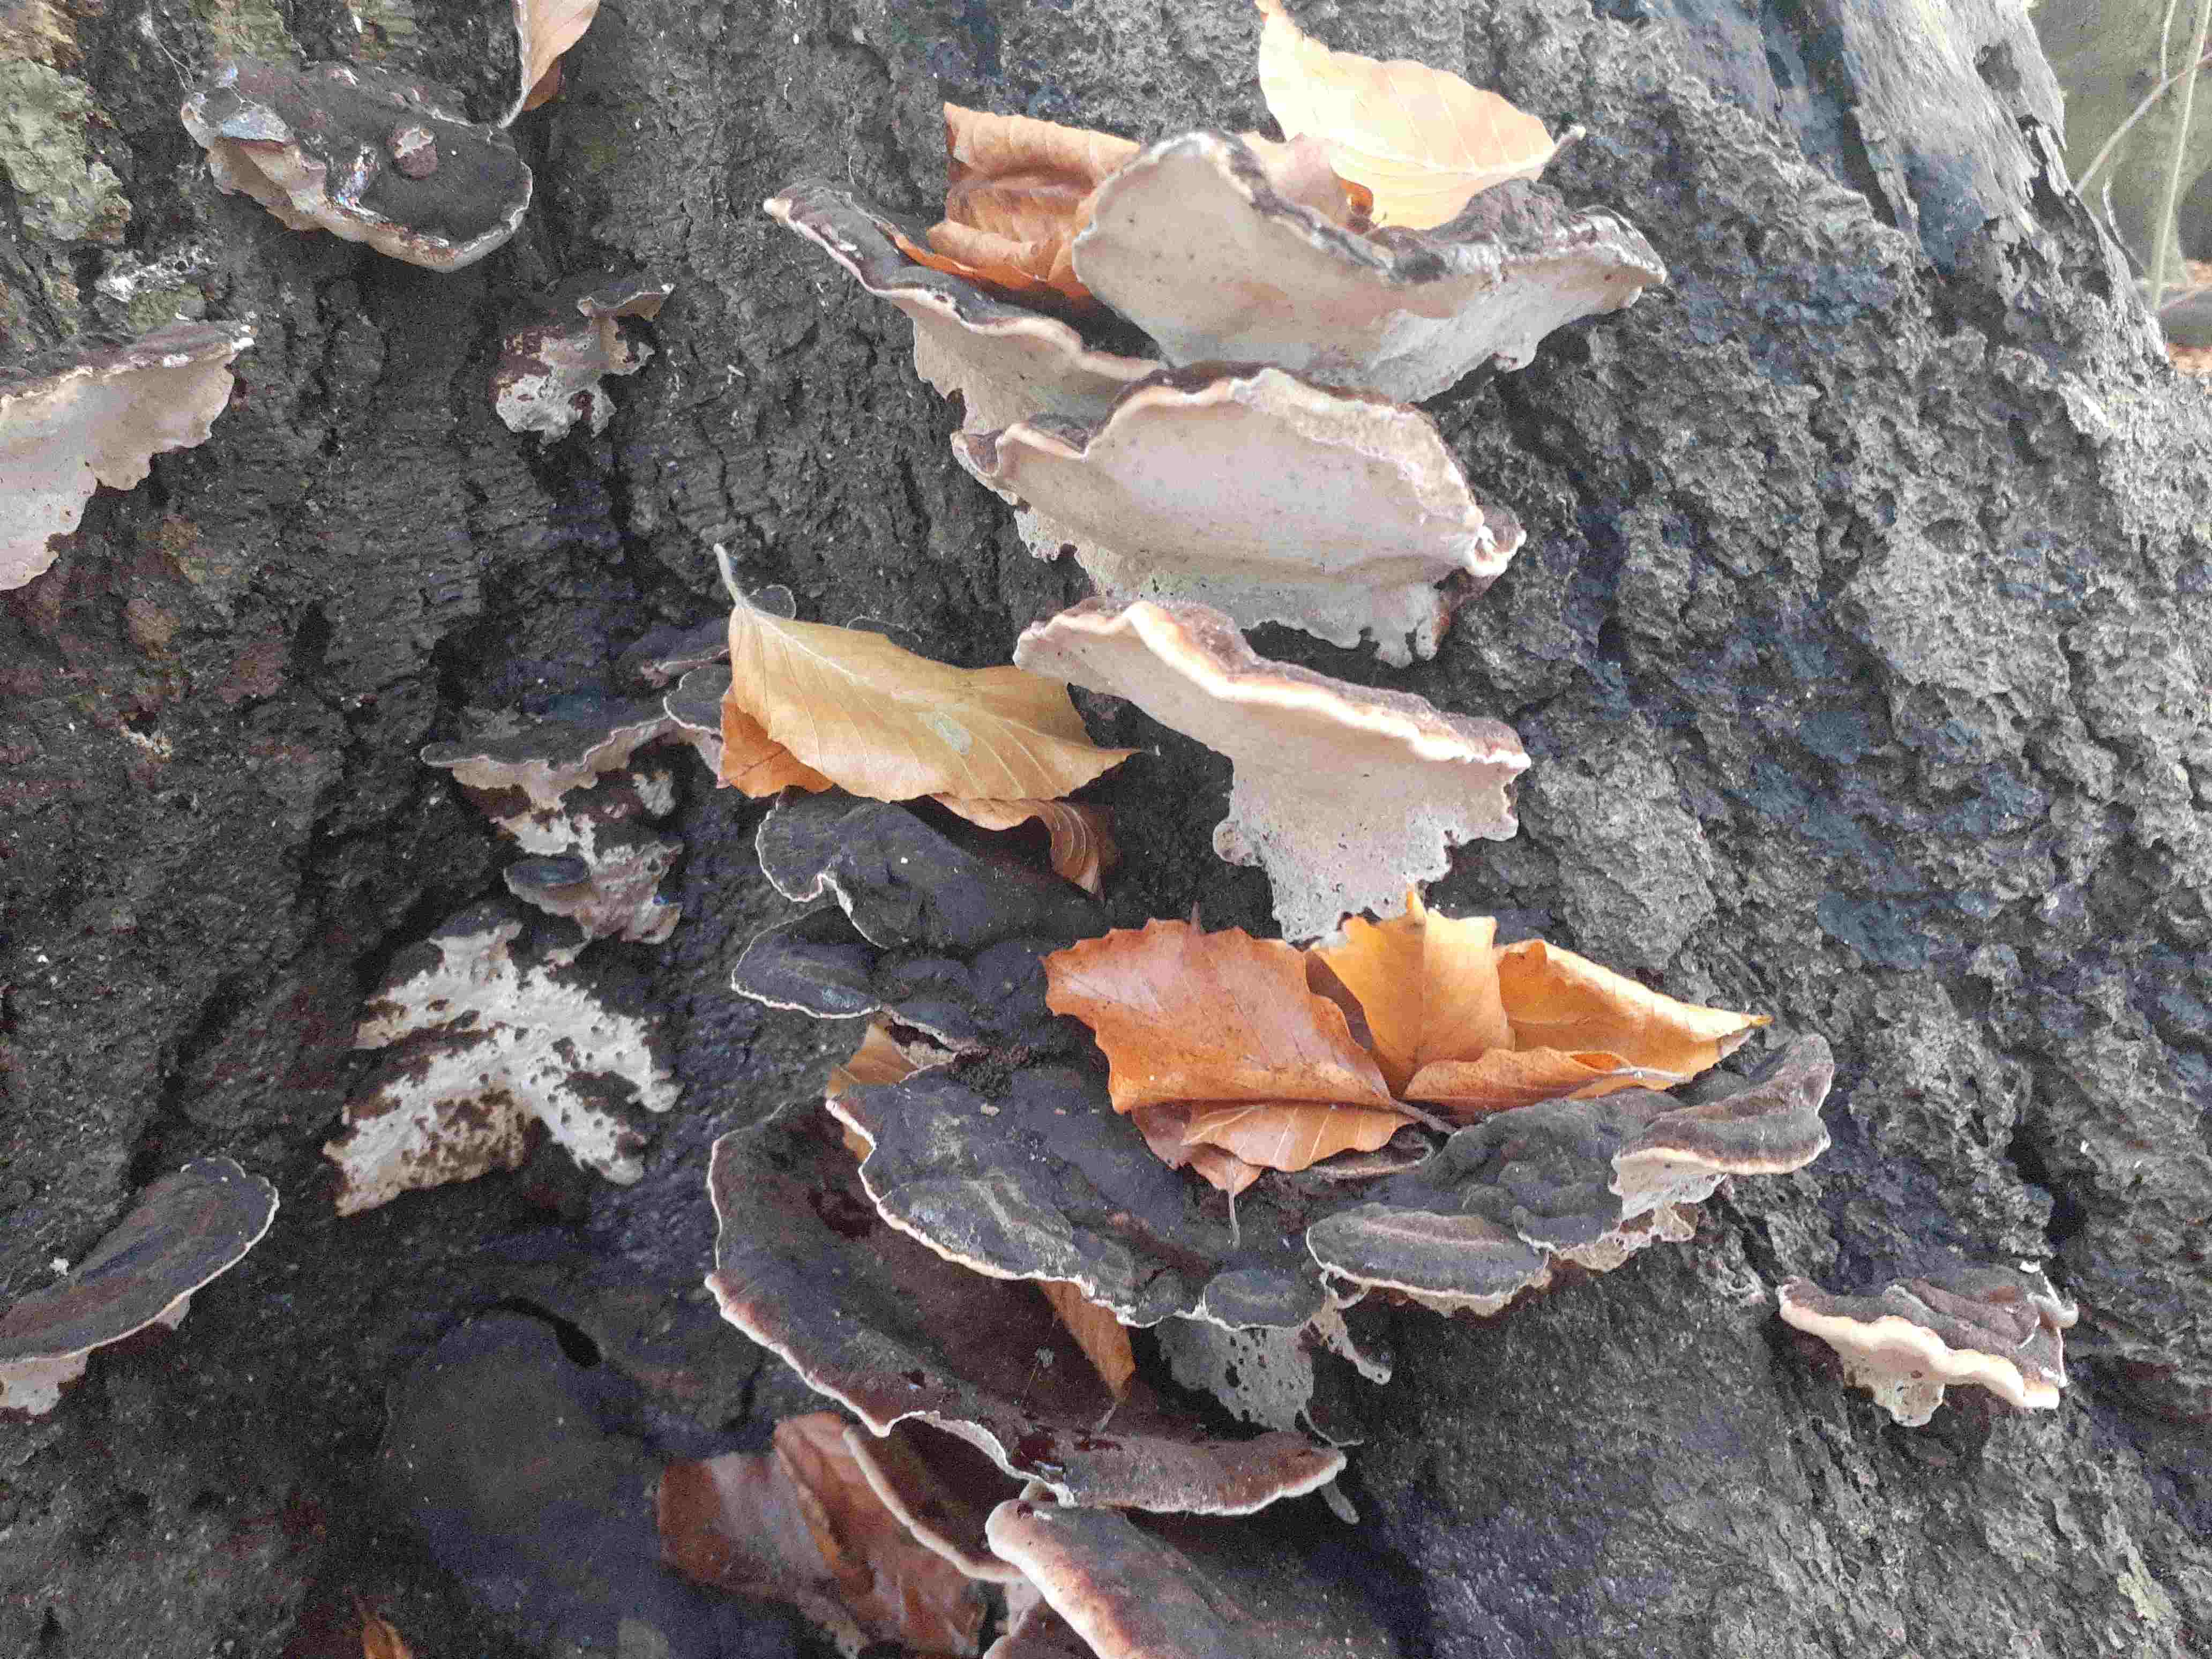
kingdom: Fungi
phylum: Basidiomycota
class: Agaricomycetes
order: Polyporales
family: Ischnodermataceae
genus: Ischnoderma
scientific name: Ischnoderma resinosum
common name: løv-tjæreporesvamp
